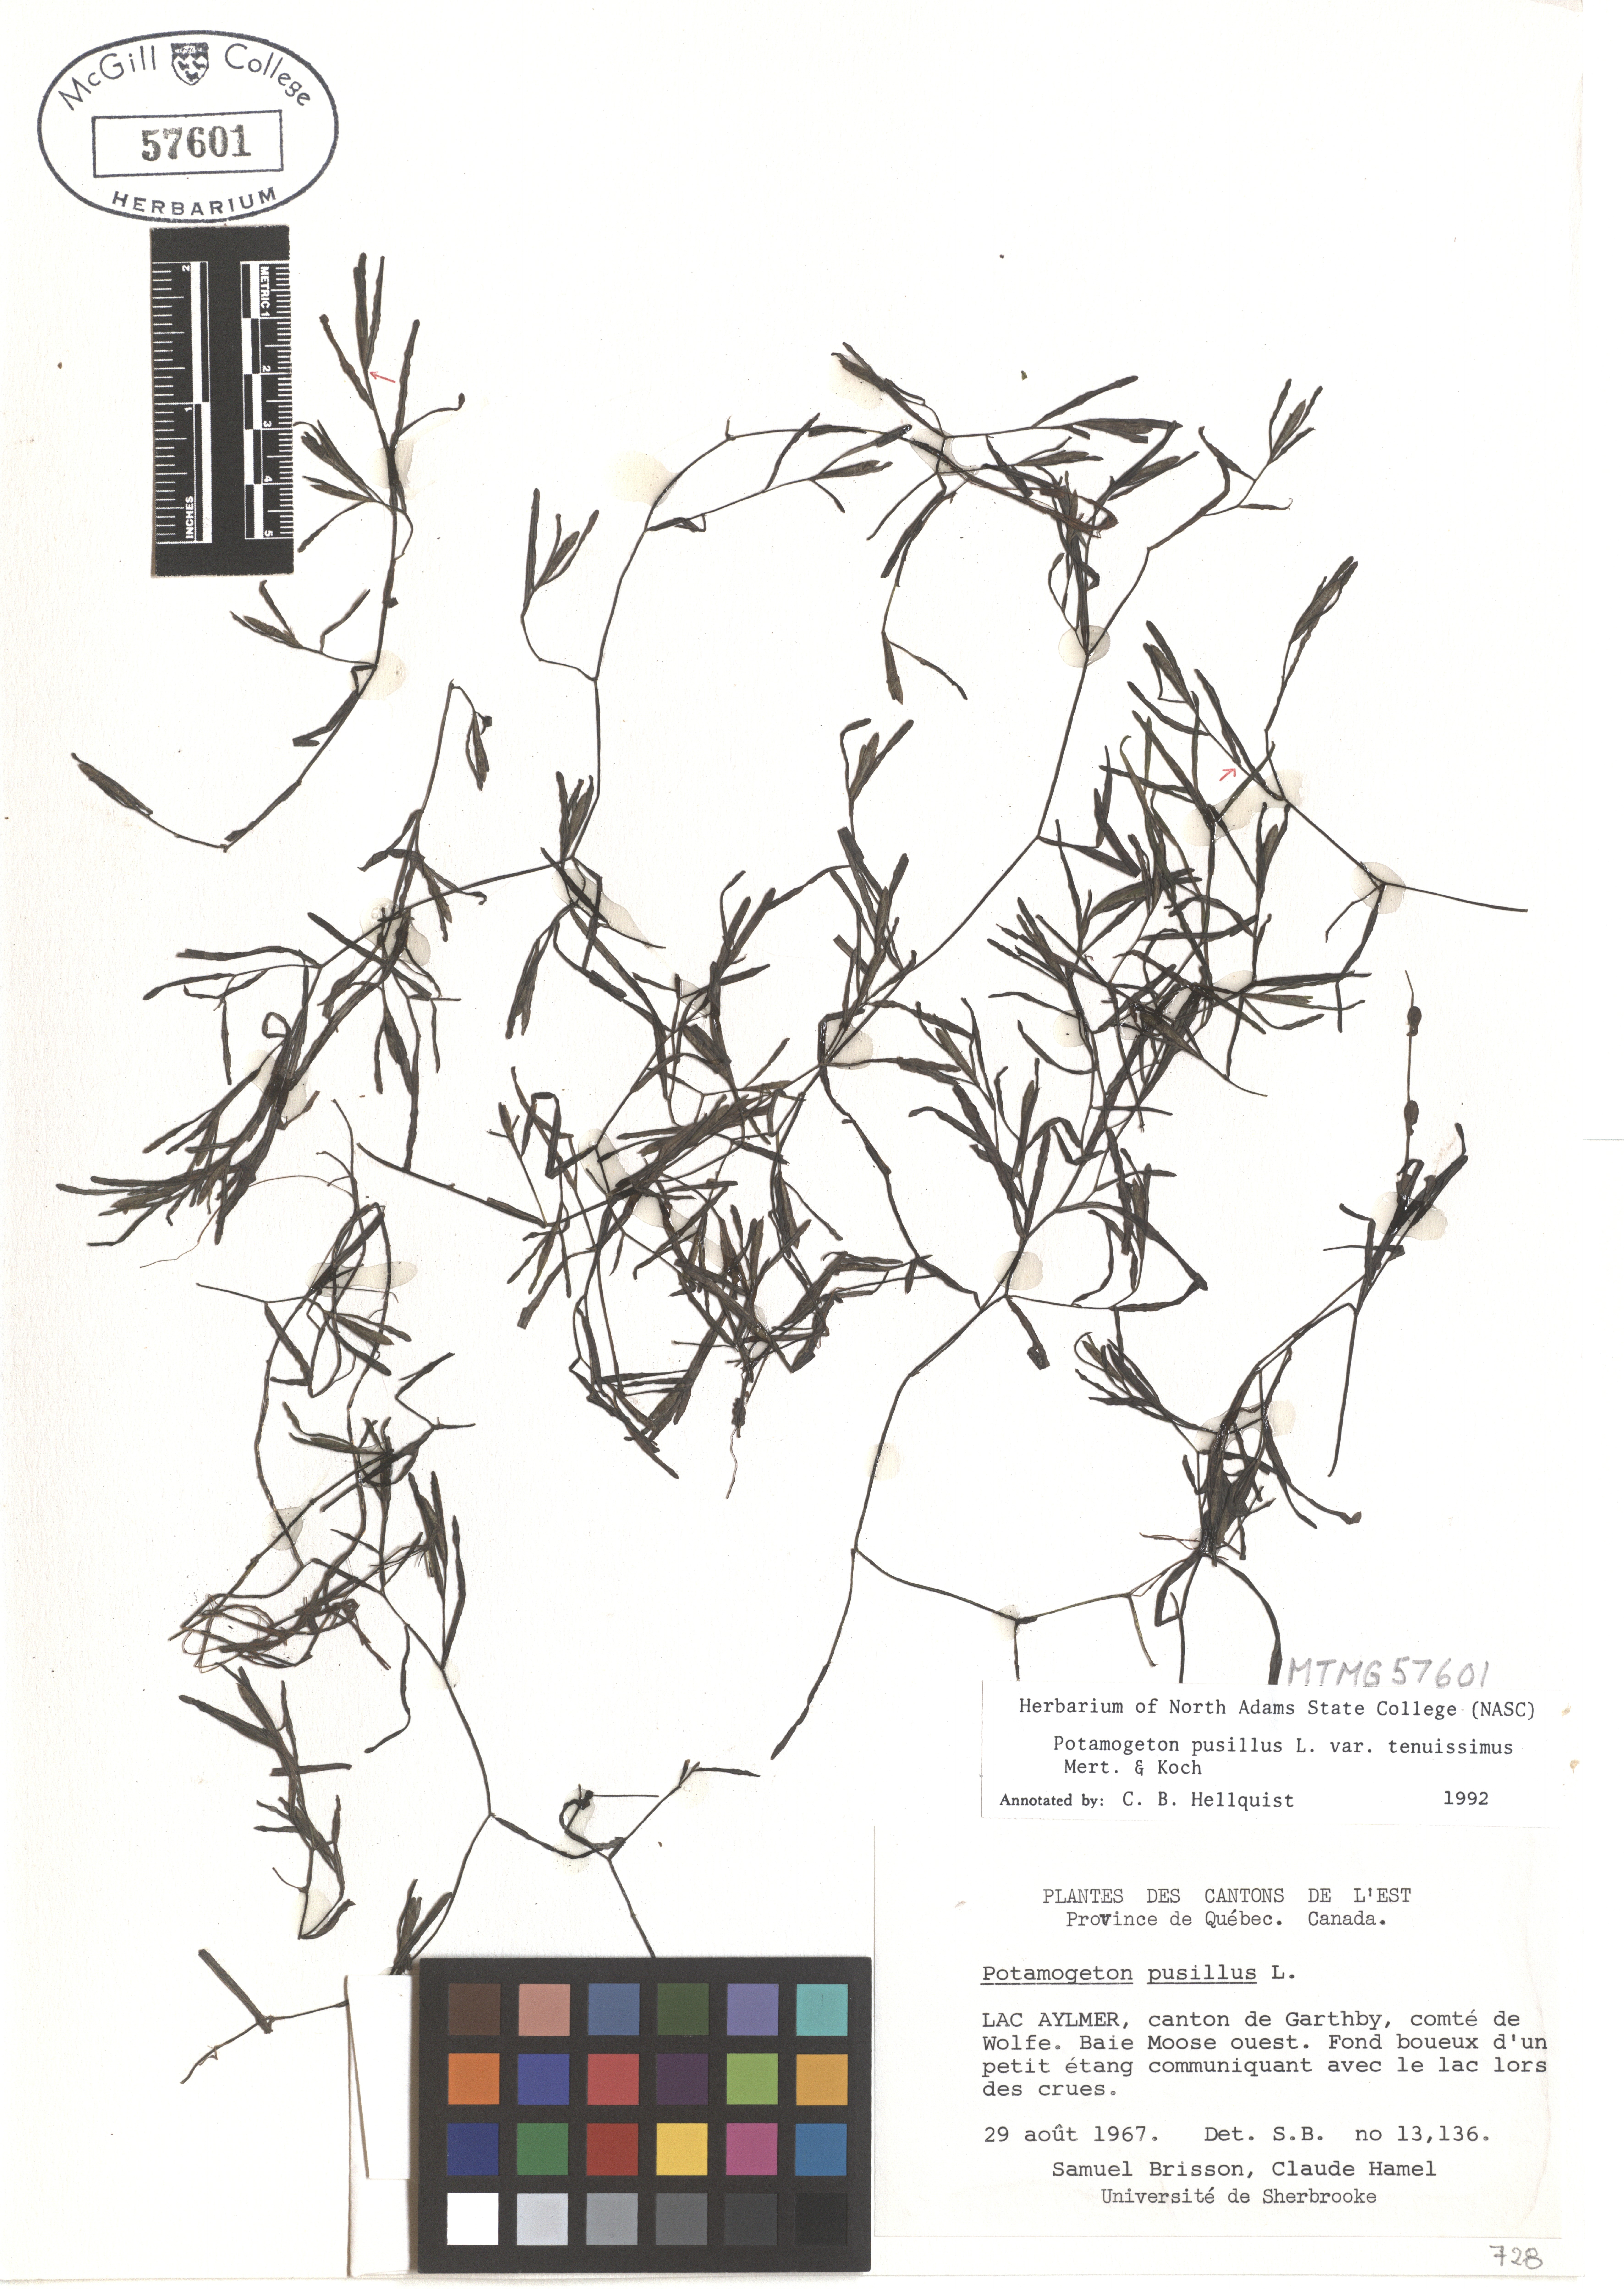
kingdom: Plantae
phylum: Tracheophyta
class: Liliopsida
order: Alismatales
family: Potamogetonaceae
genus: Potamogeton
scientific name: Potamogeton pusillus
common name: Lesser pondweed
